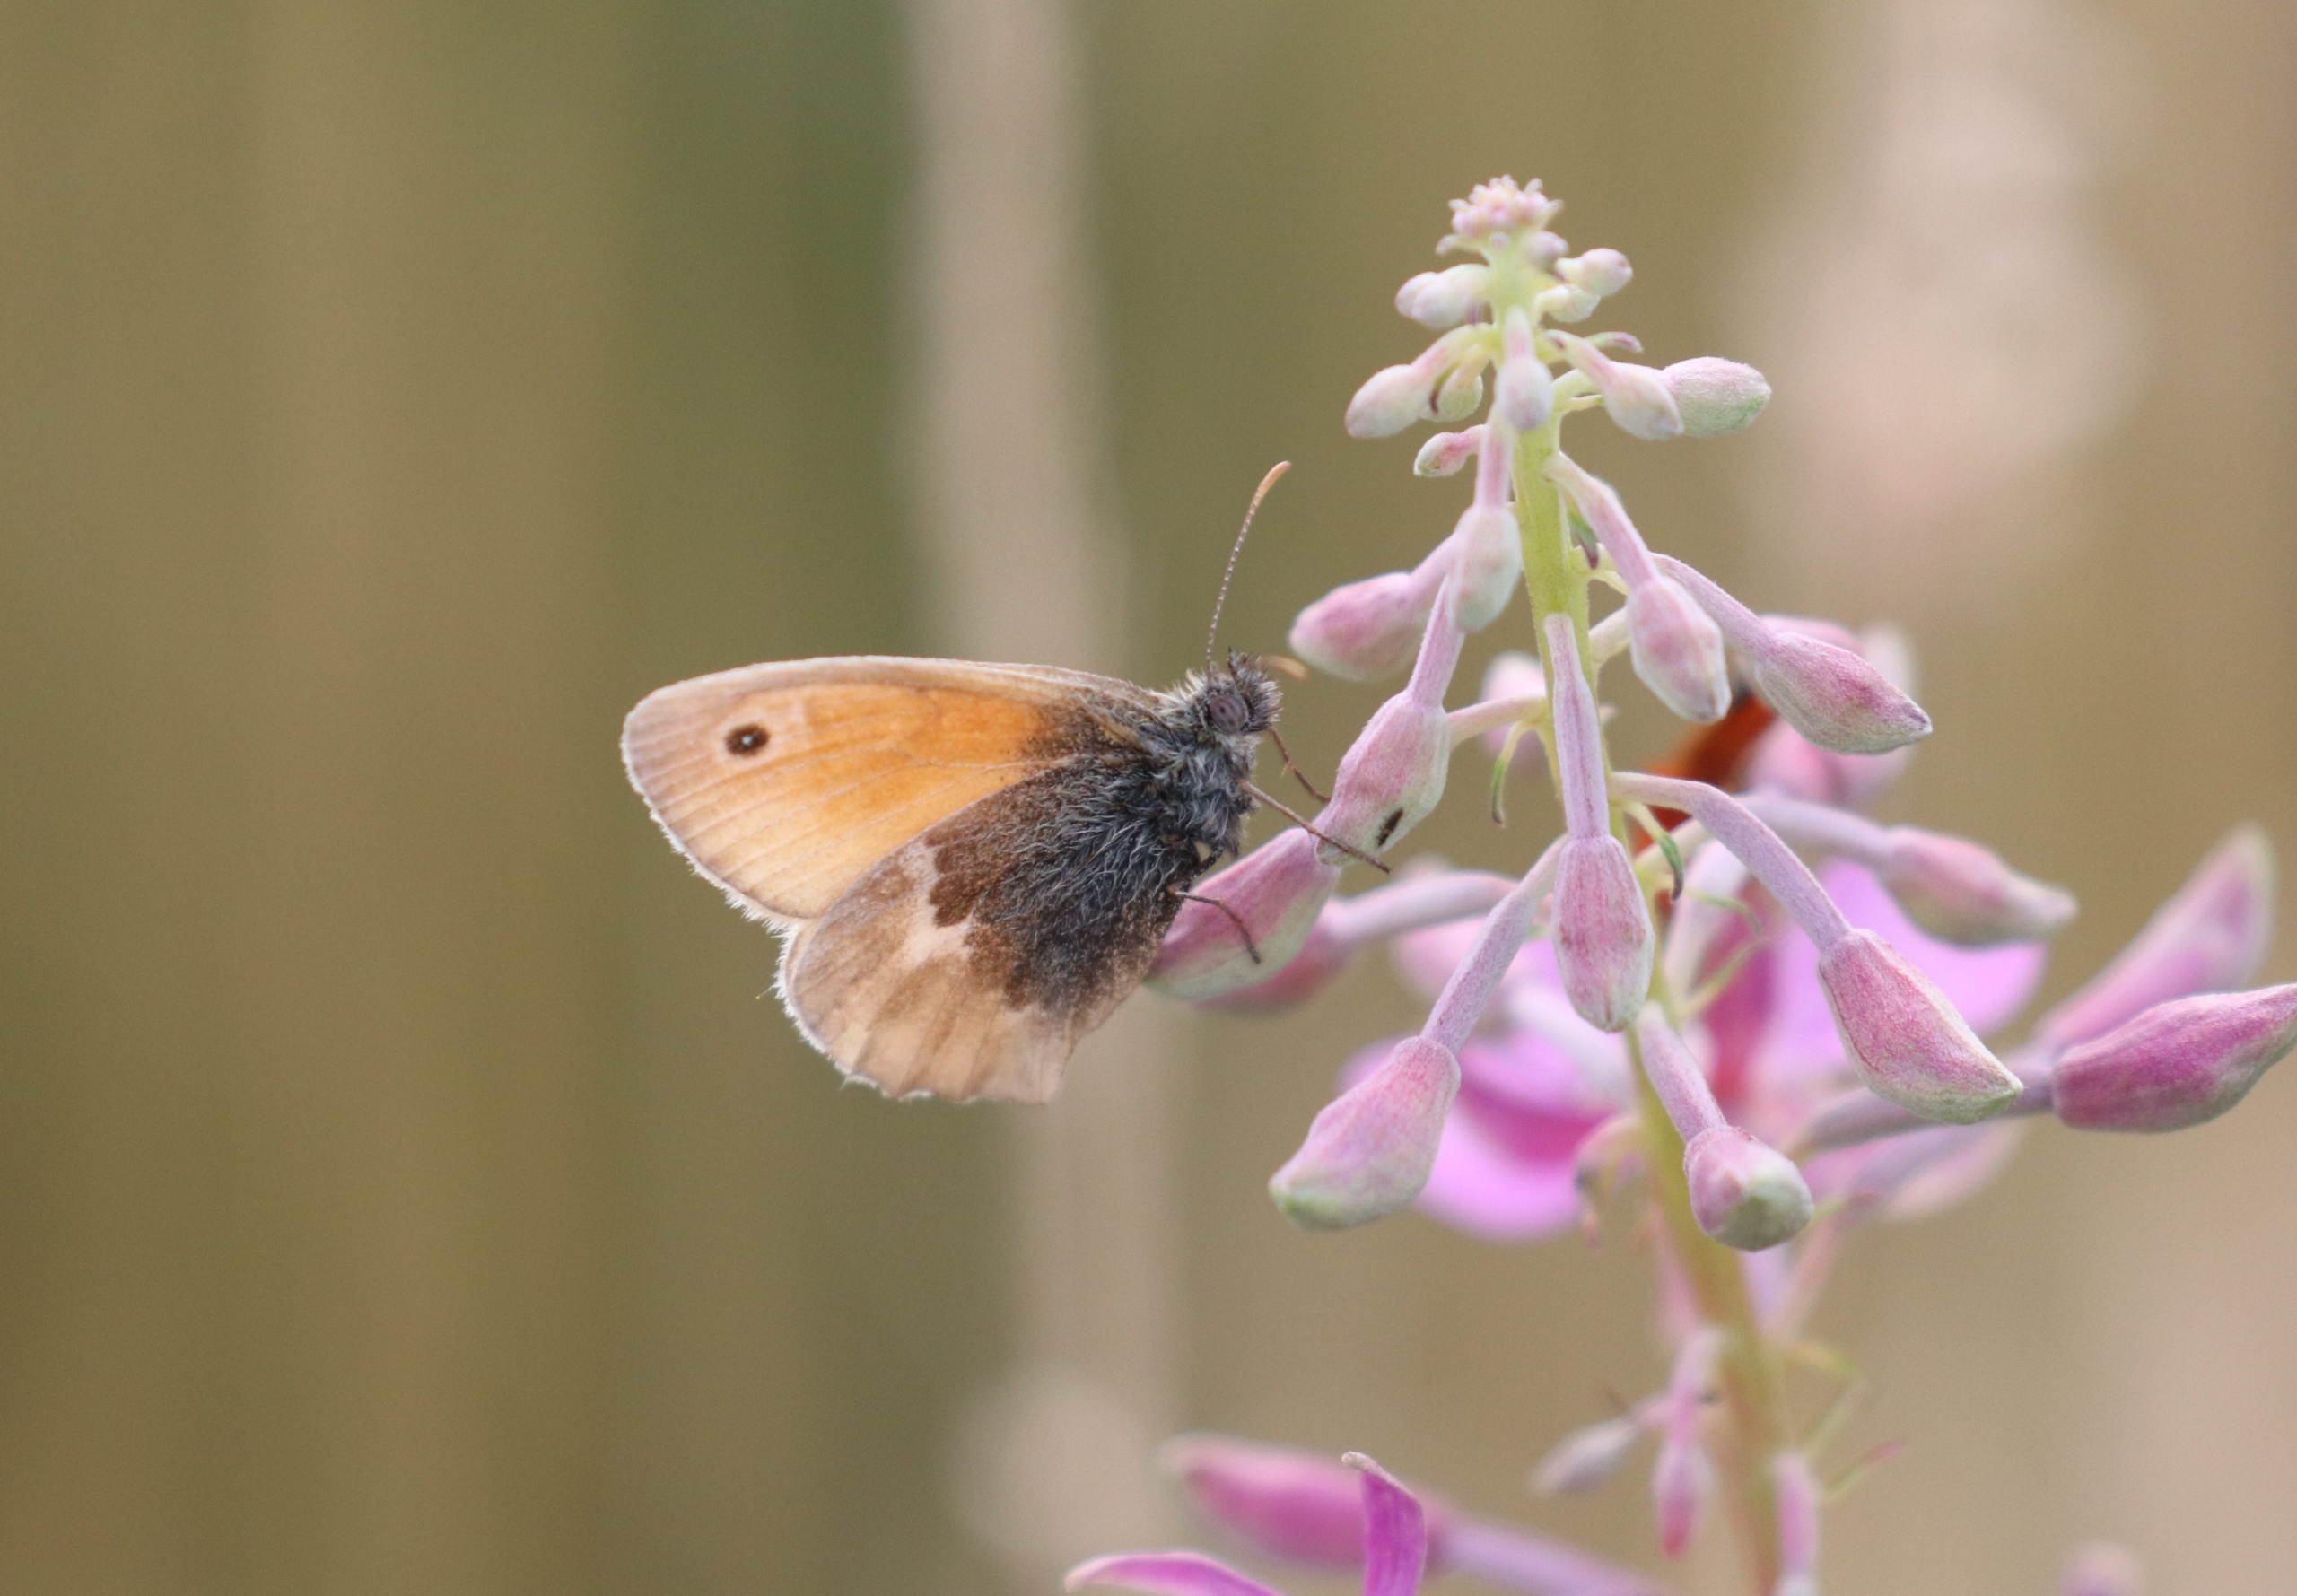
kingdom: Animalia
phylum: Arthropoda
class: Insecta
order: Lepidoptera
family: Nymphalidae
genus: Coenonympha
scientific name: Coenonympha pamphilus
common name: Okkergul randøje
